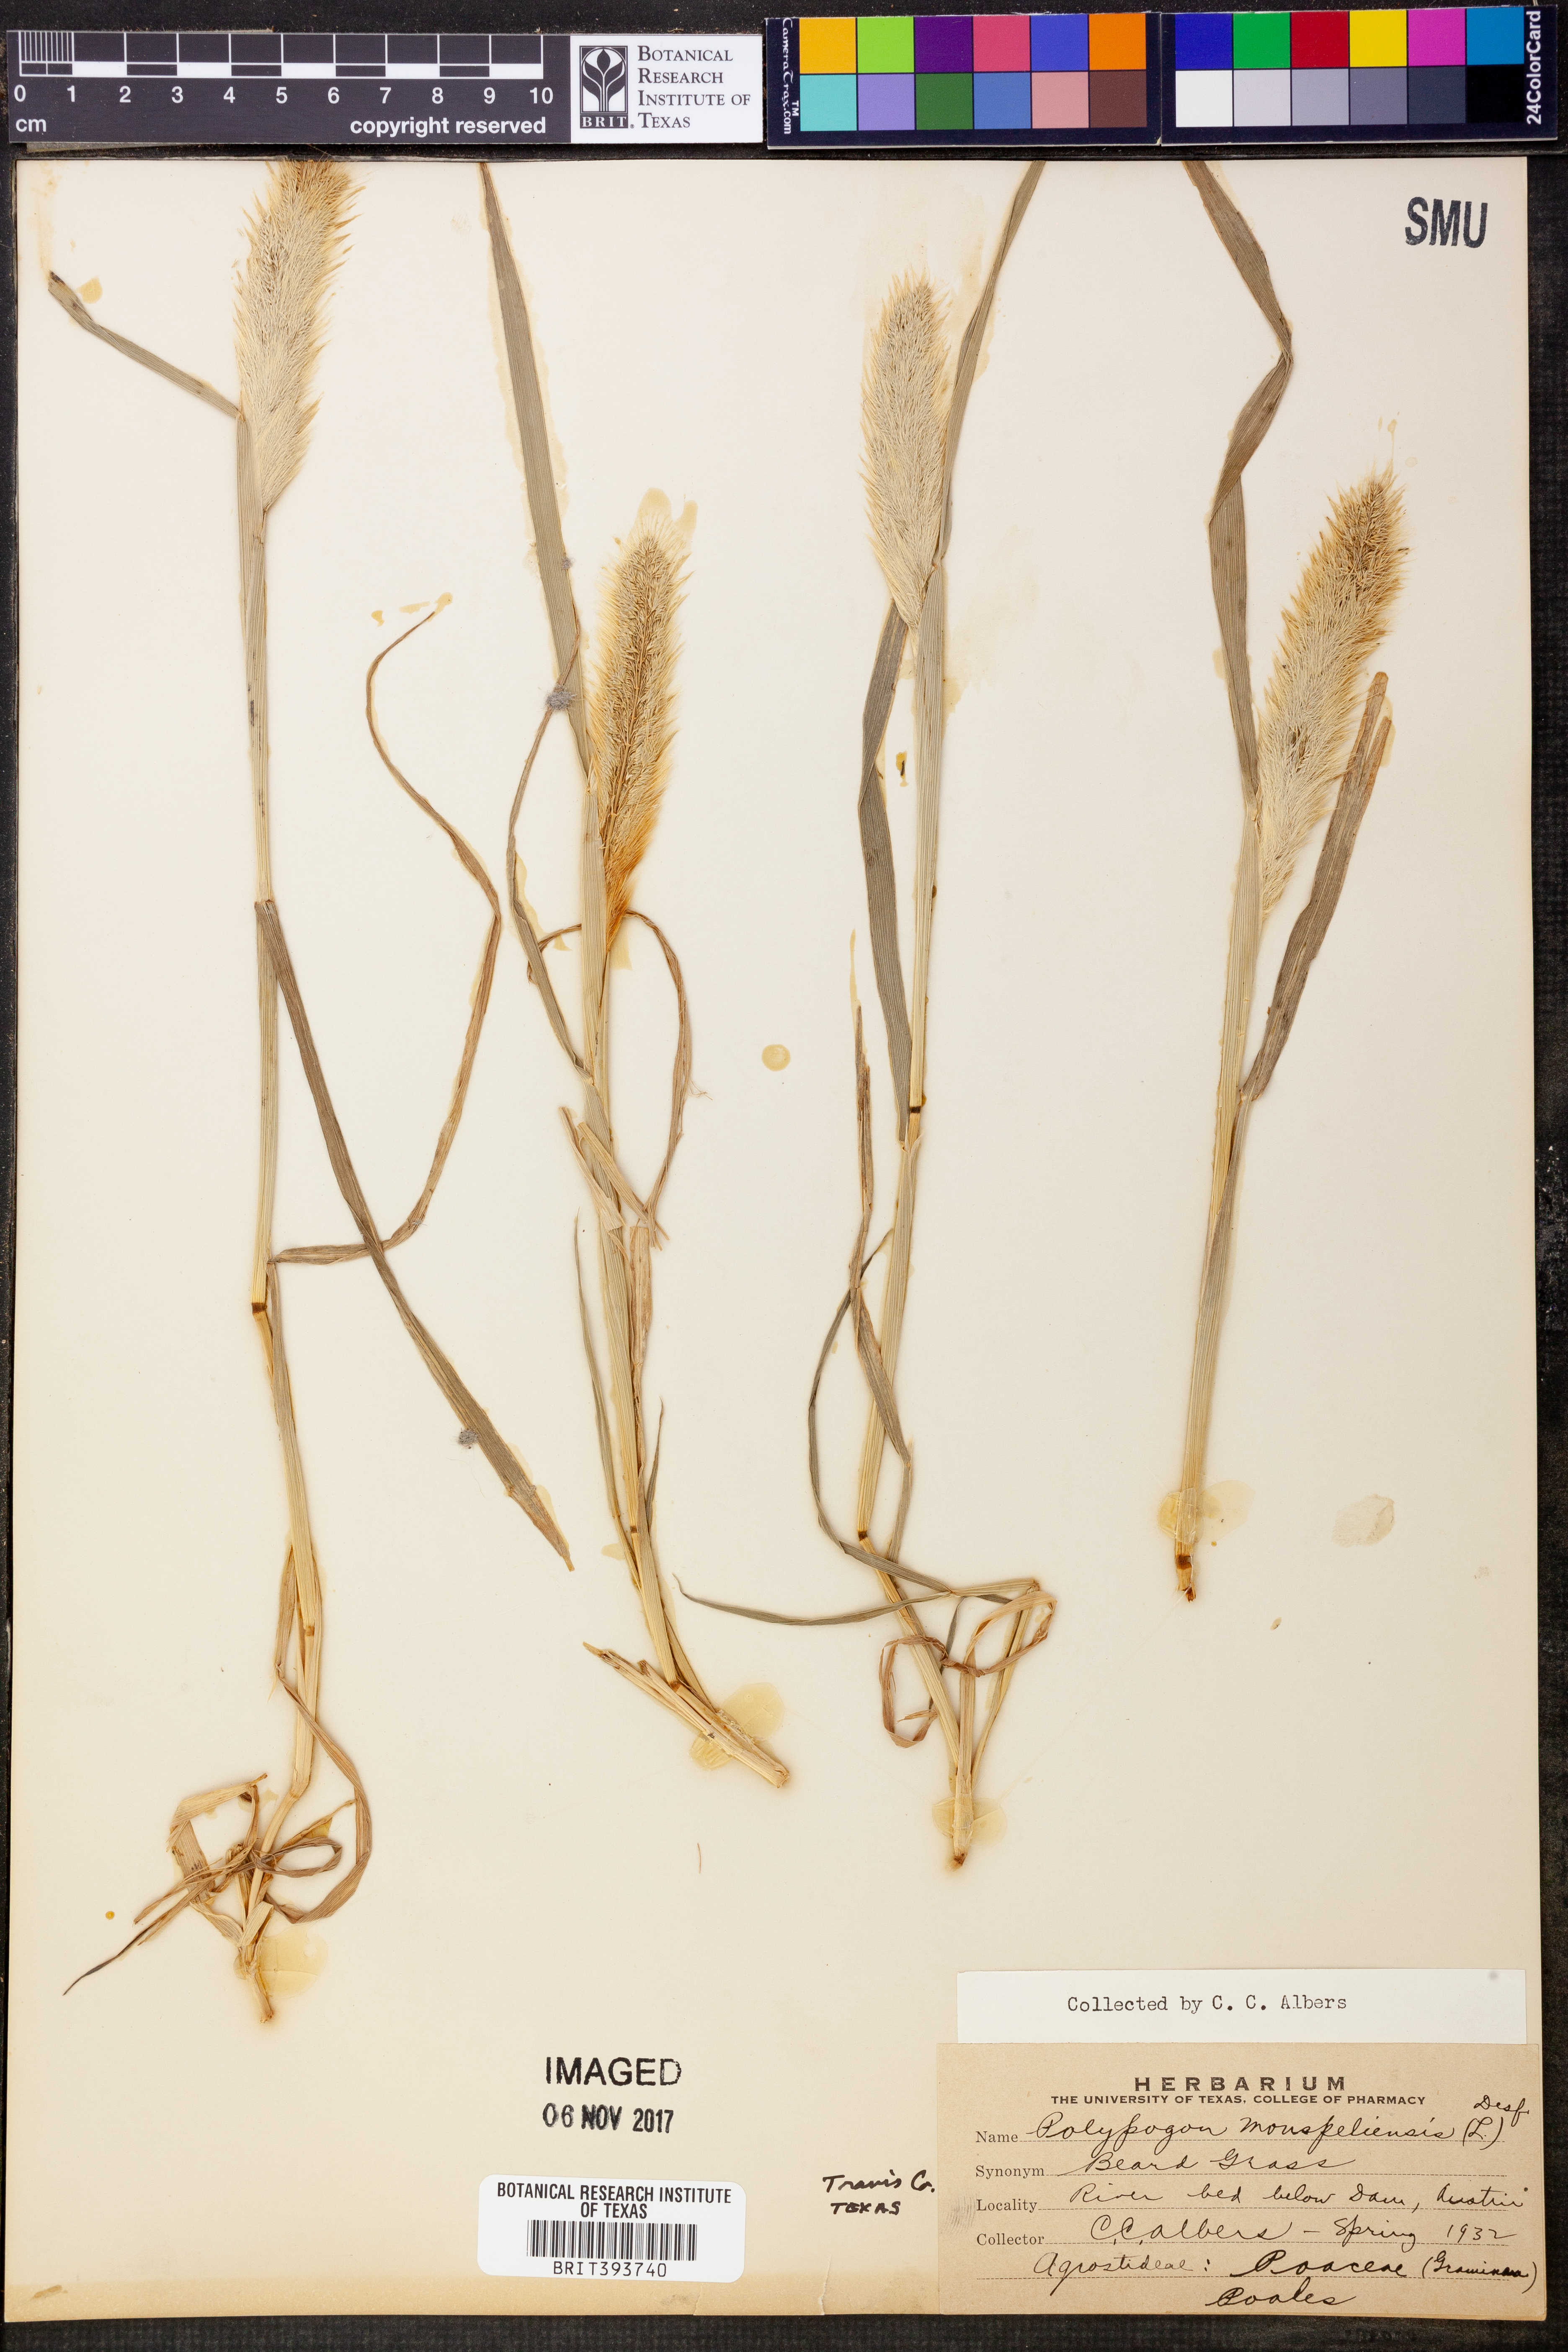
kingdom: Plantae
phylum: Tracheophyta
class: Liliopsida
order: Poales
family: Poaceae
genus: Polypogon
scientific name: Polypogon monspeliensis
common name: Annual rabbitsfoot grass
